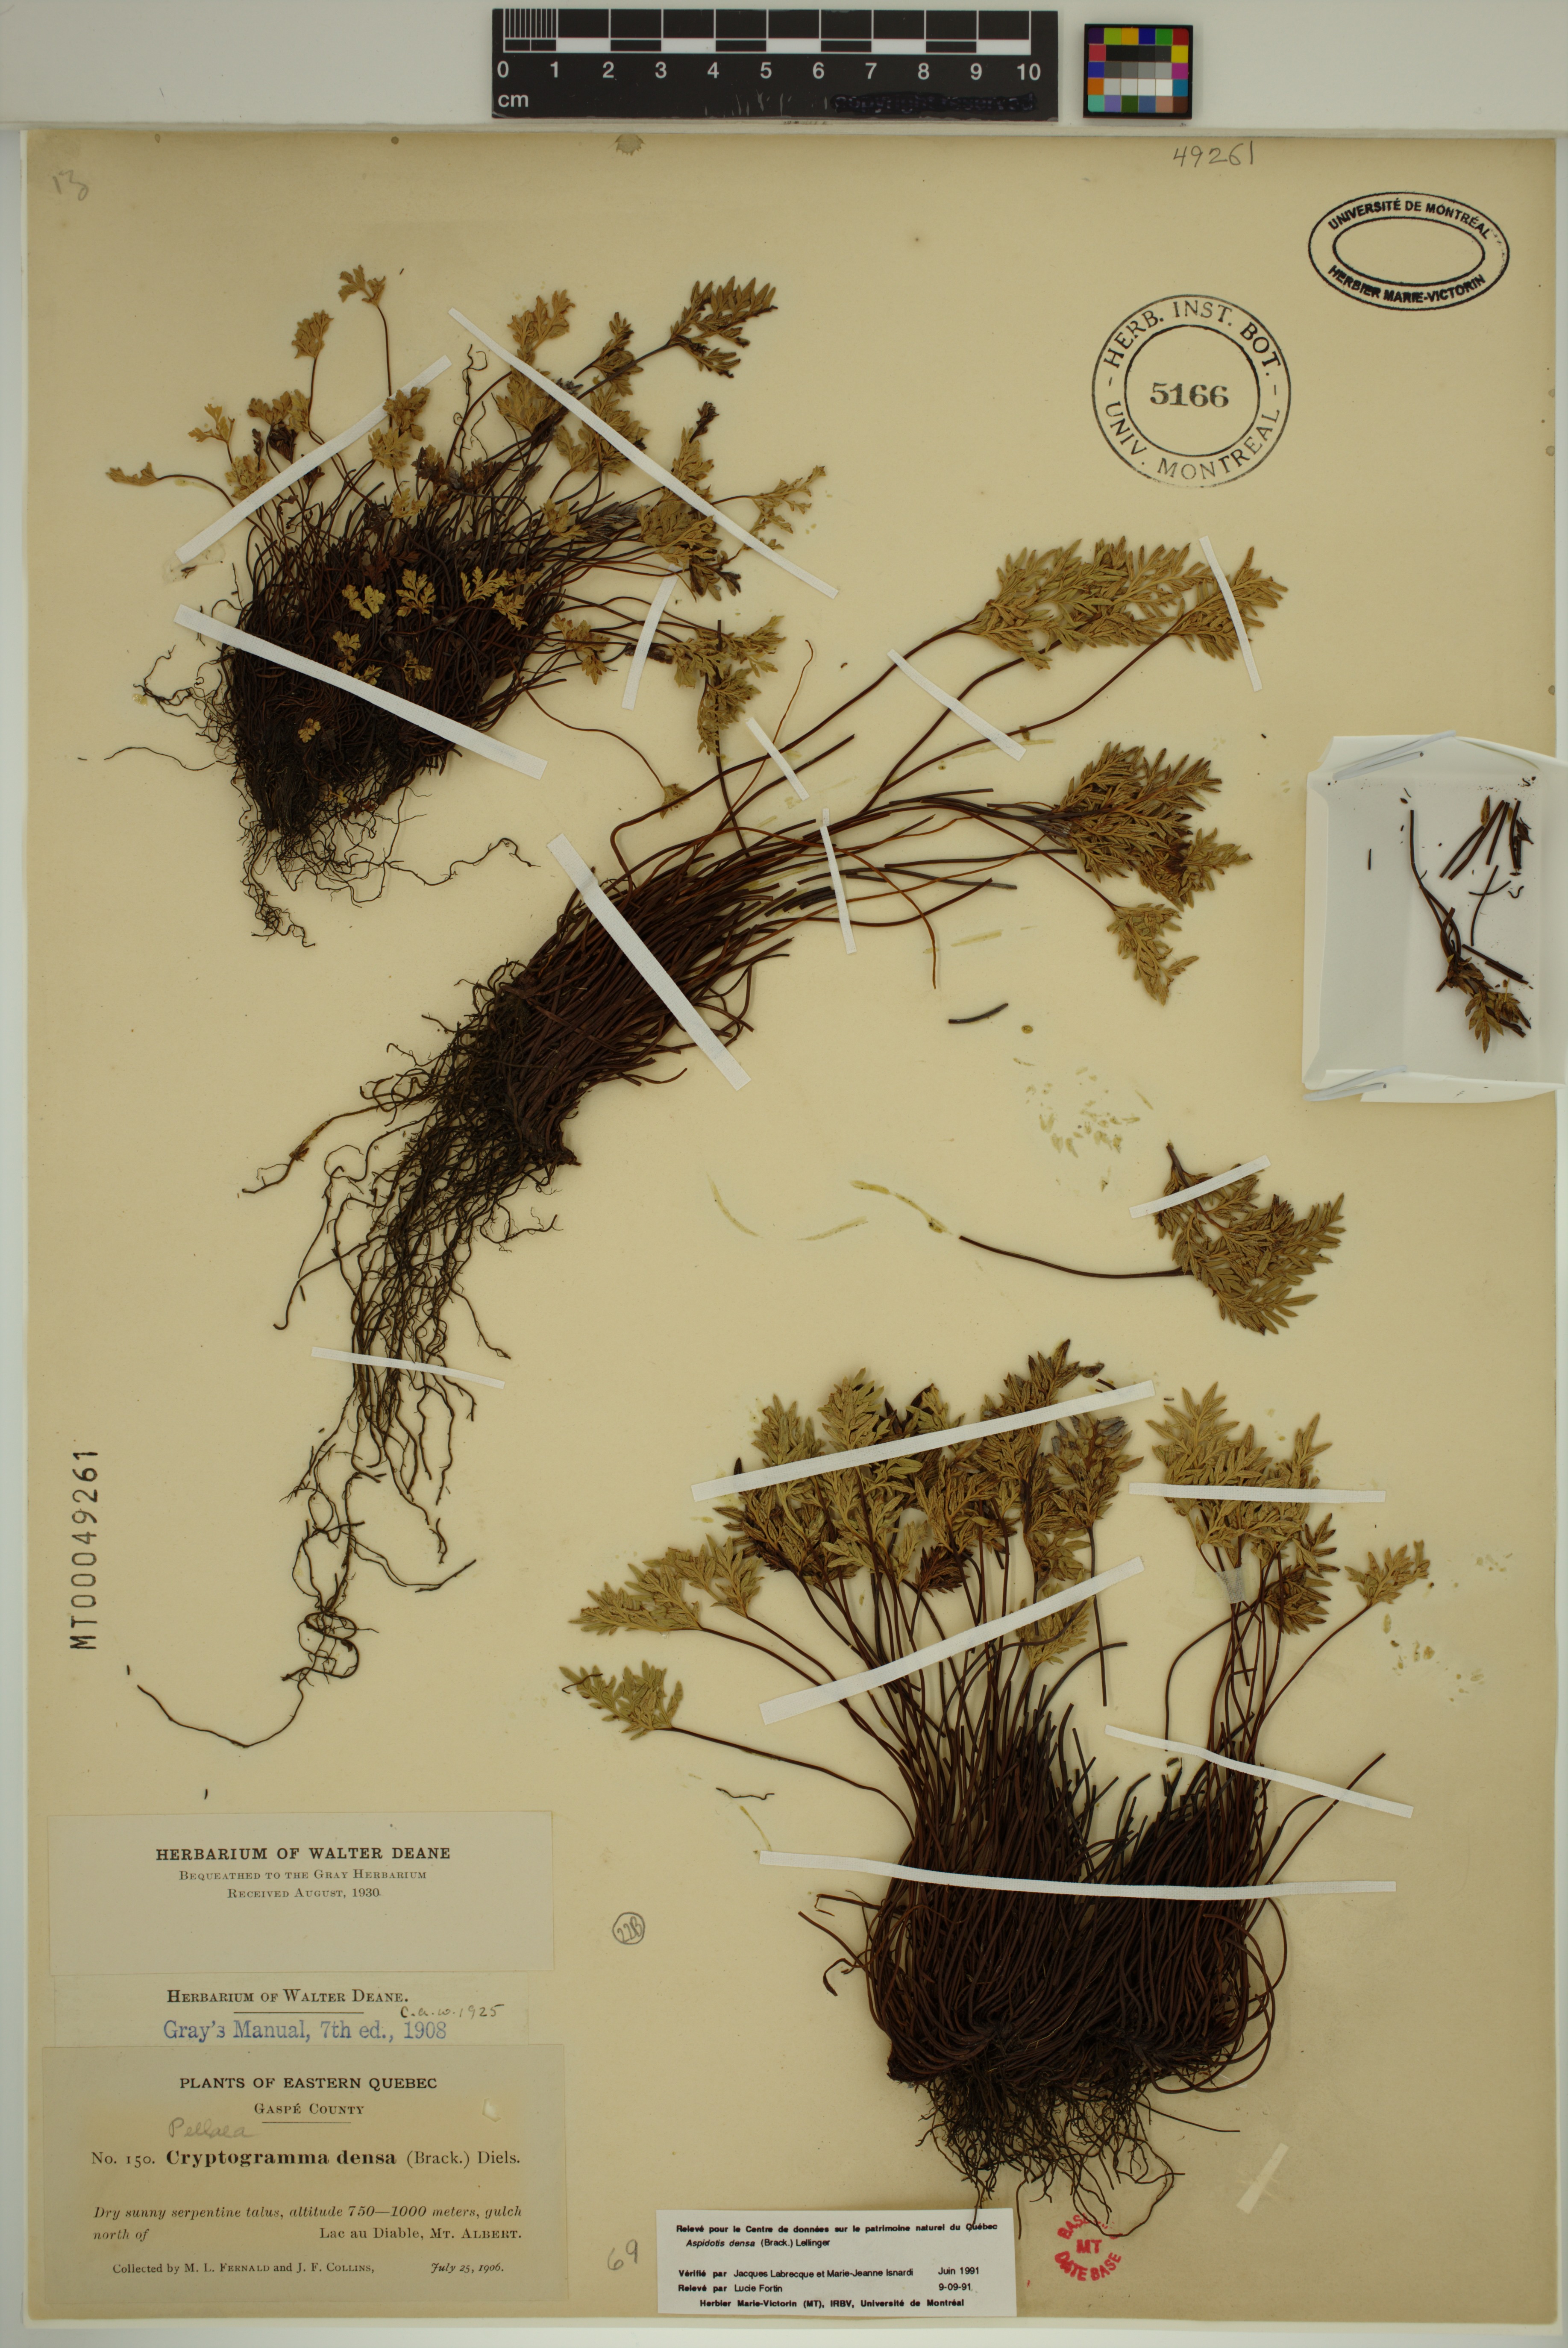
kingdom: Plantae
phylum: Tracheophyta
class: Polypodiopsida
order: Polypodiales
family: Pteridaceae
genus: Aspidotis
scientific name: Aspidotis densa
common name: Indian's dream
